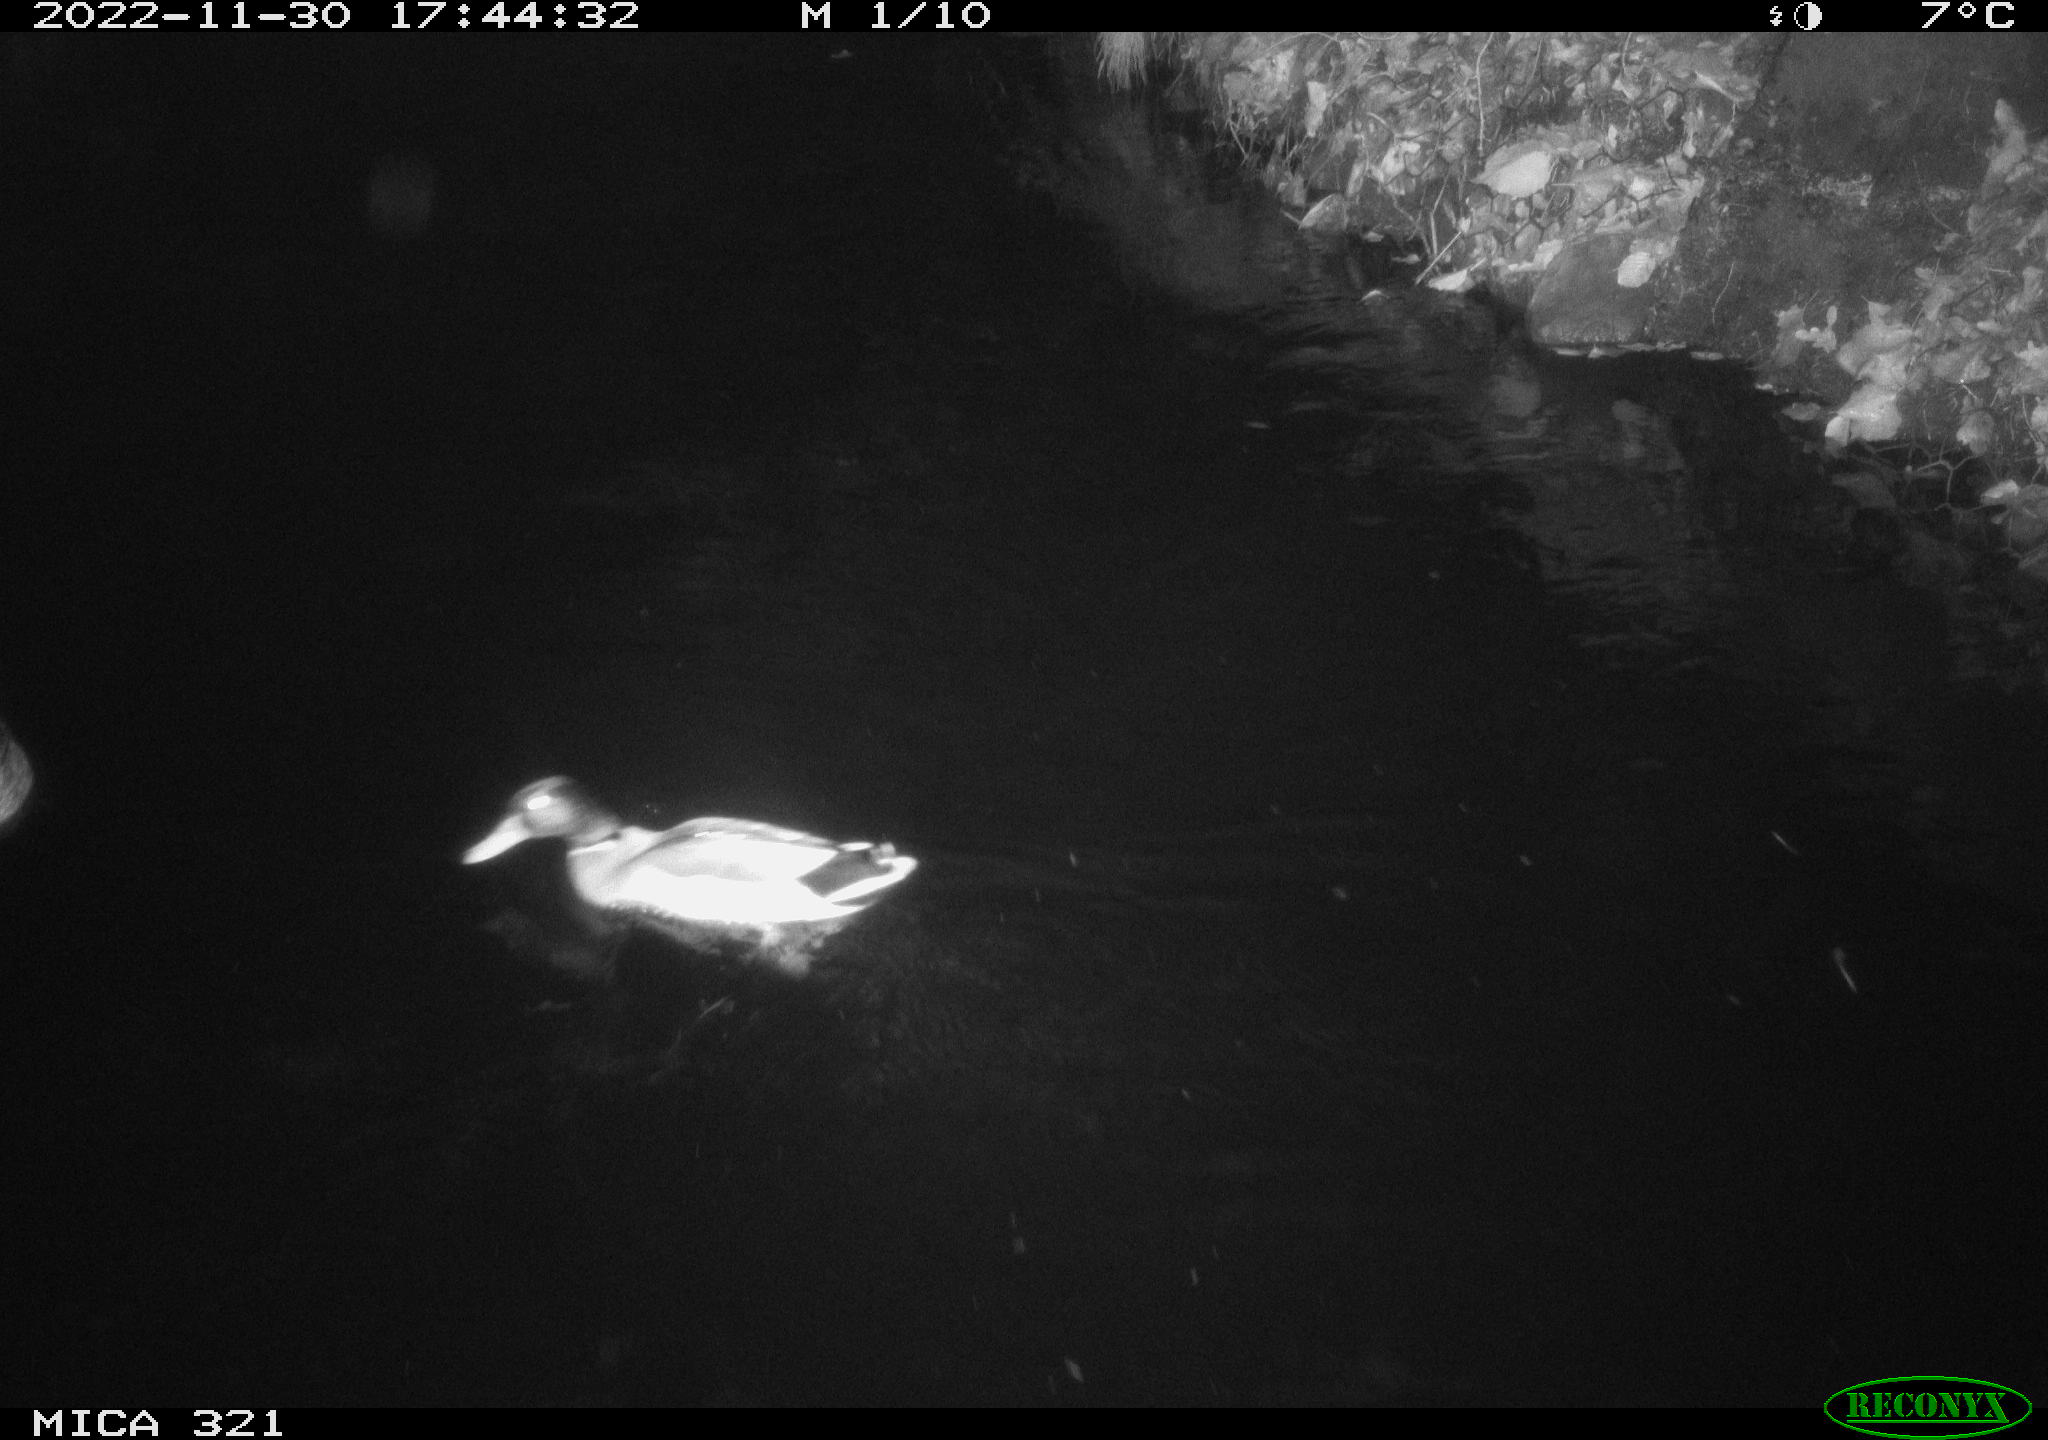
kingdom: Animalia
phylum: Chordata
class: Aves
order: Anseriformes
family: Anatidae
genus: Anas
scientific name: Anas
